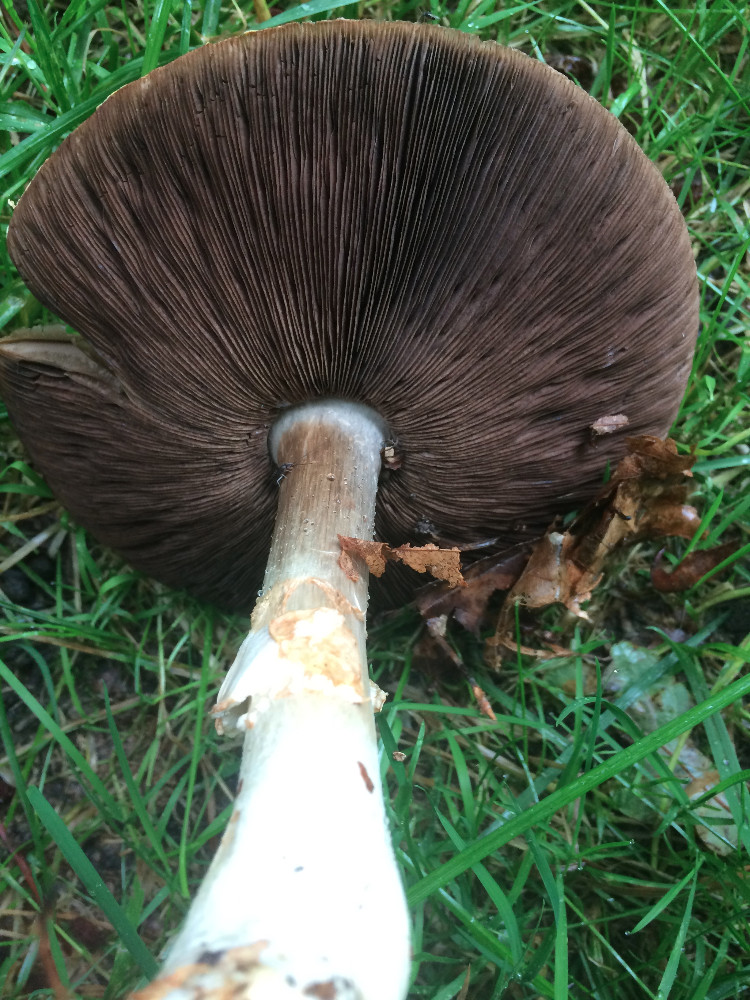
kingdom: Fungi
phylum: Basidiomycota
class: Agaricomycetes
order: Agaricales
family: Agaricaceae
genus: Agaricus
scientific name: Agaricus arvensis
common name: ager-champignon
